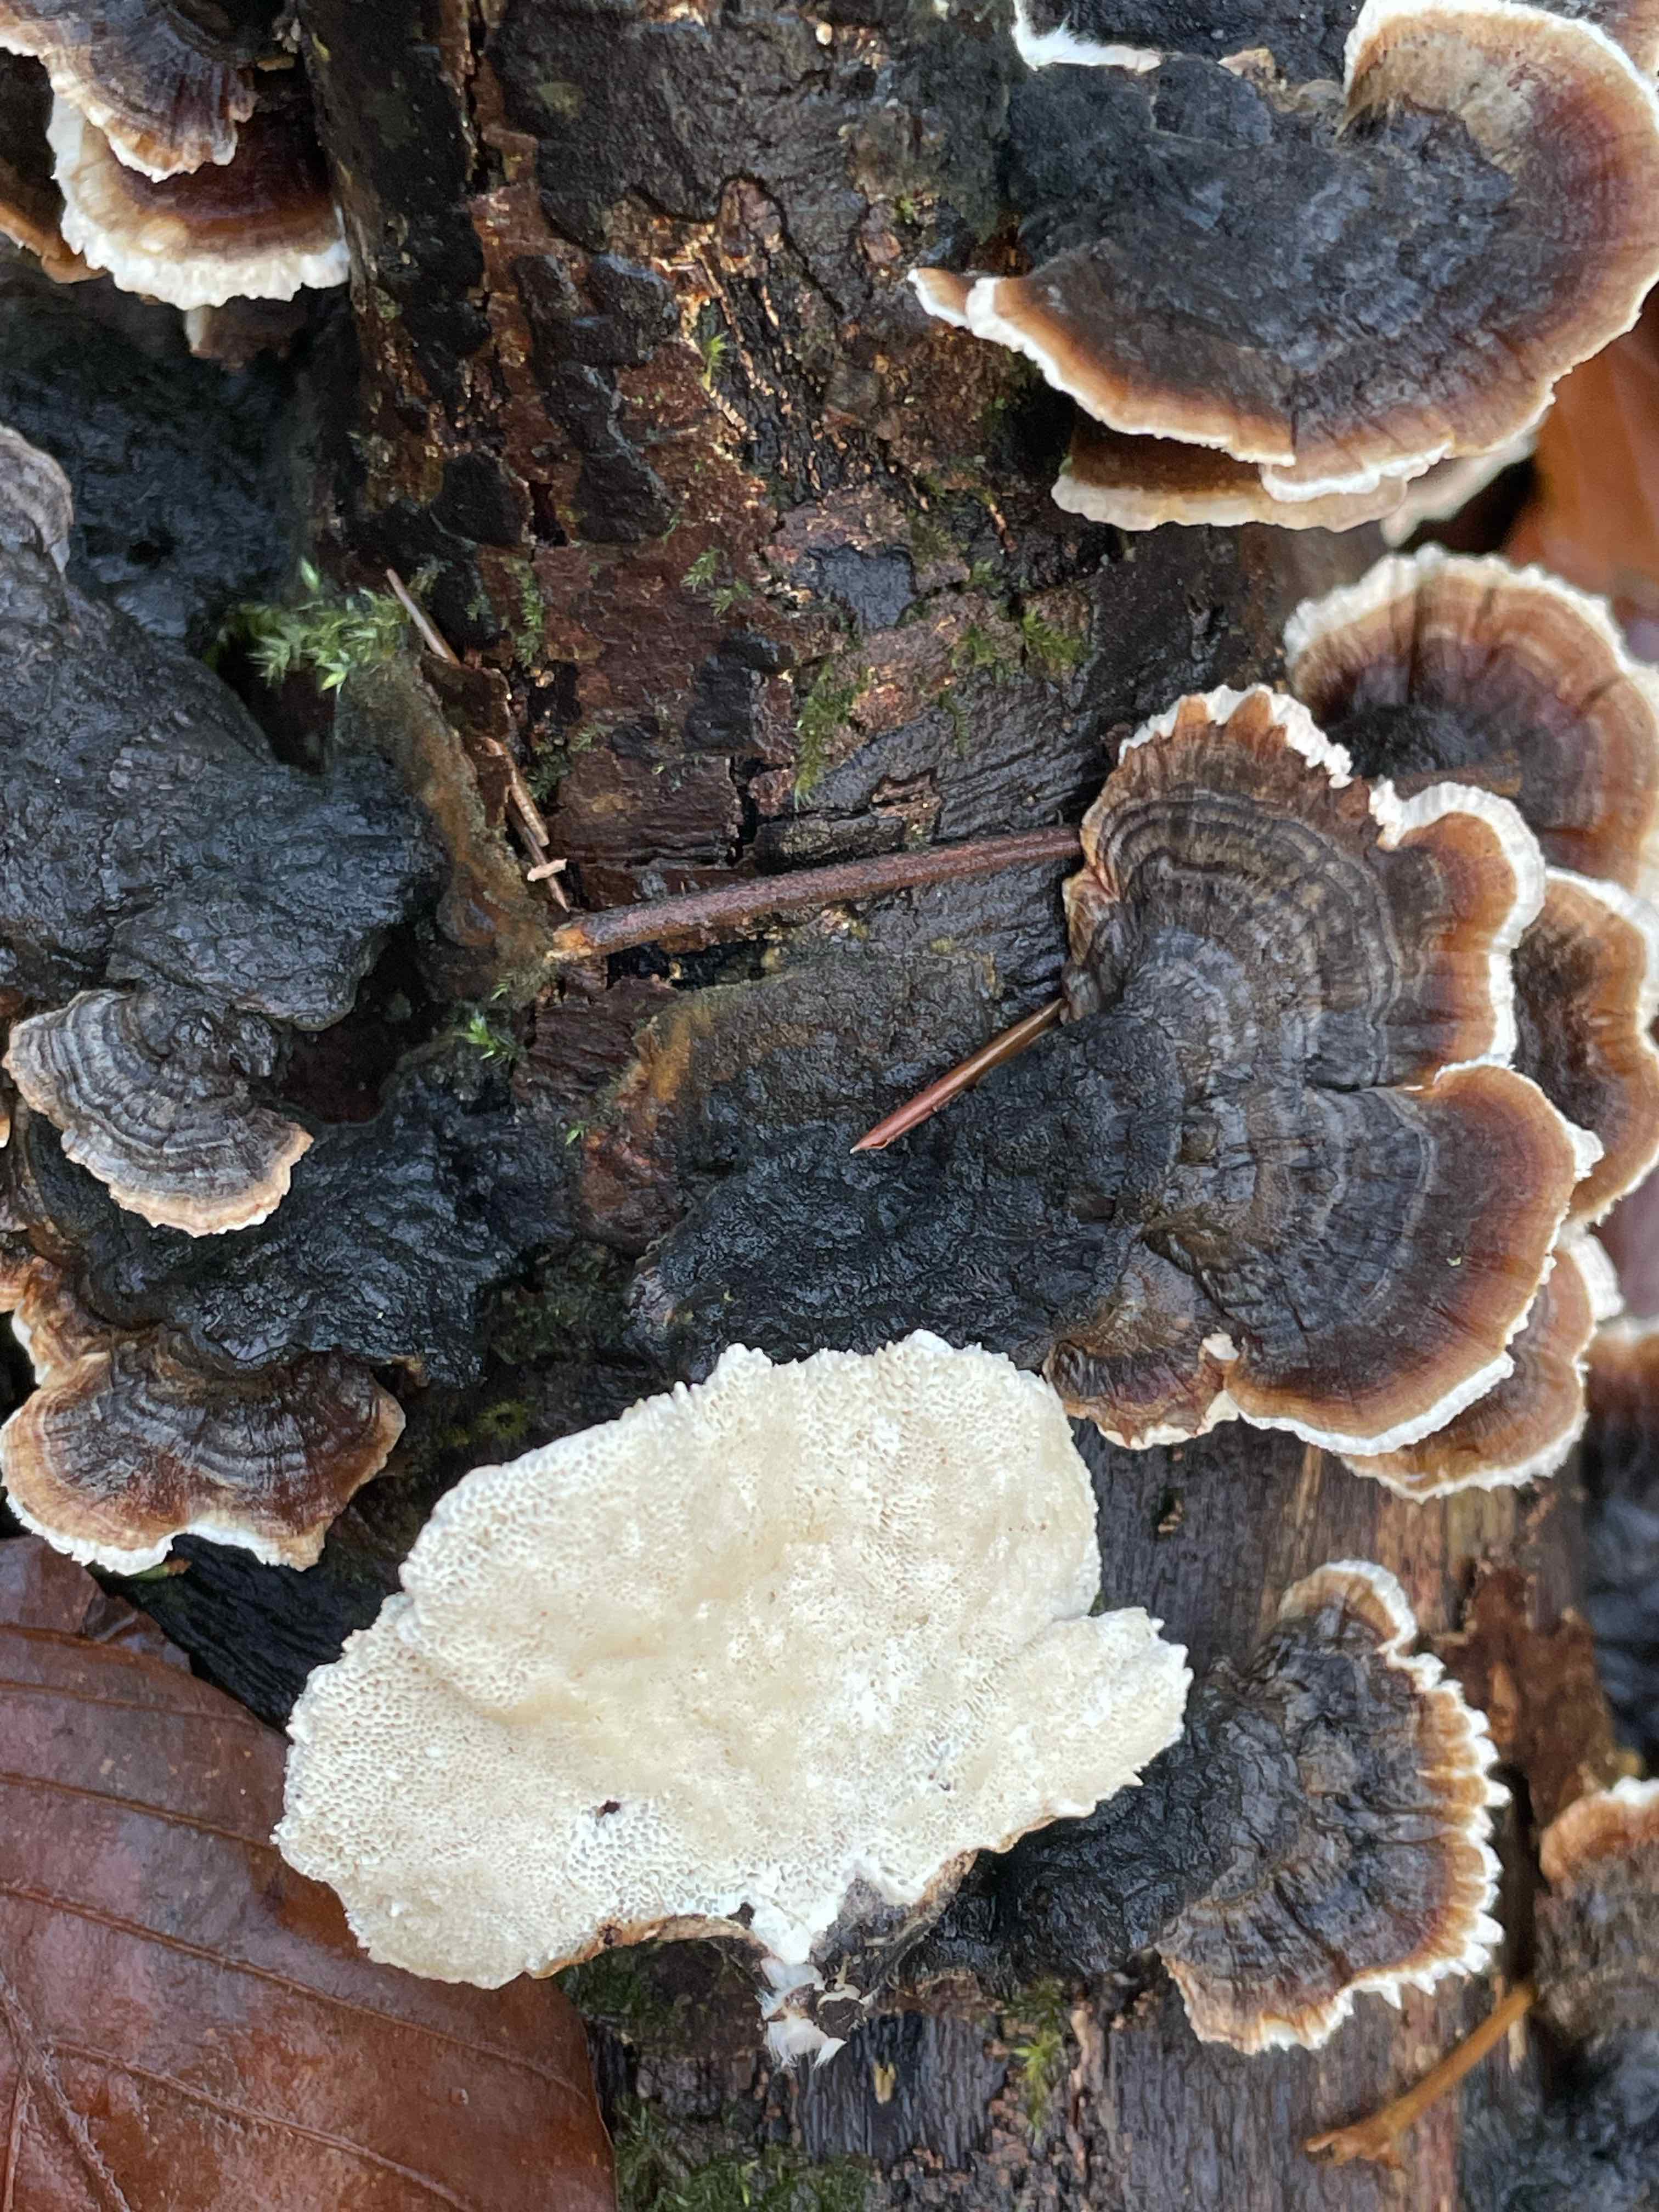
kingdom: Fungi
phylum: Basidiomycota
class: Agaricomycetes
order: Polyporales
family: Polyporaceae
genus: Trametes
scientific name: Trametes versicolor
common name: broget læderporesvamp
